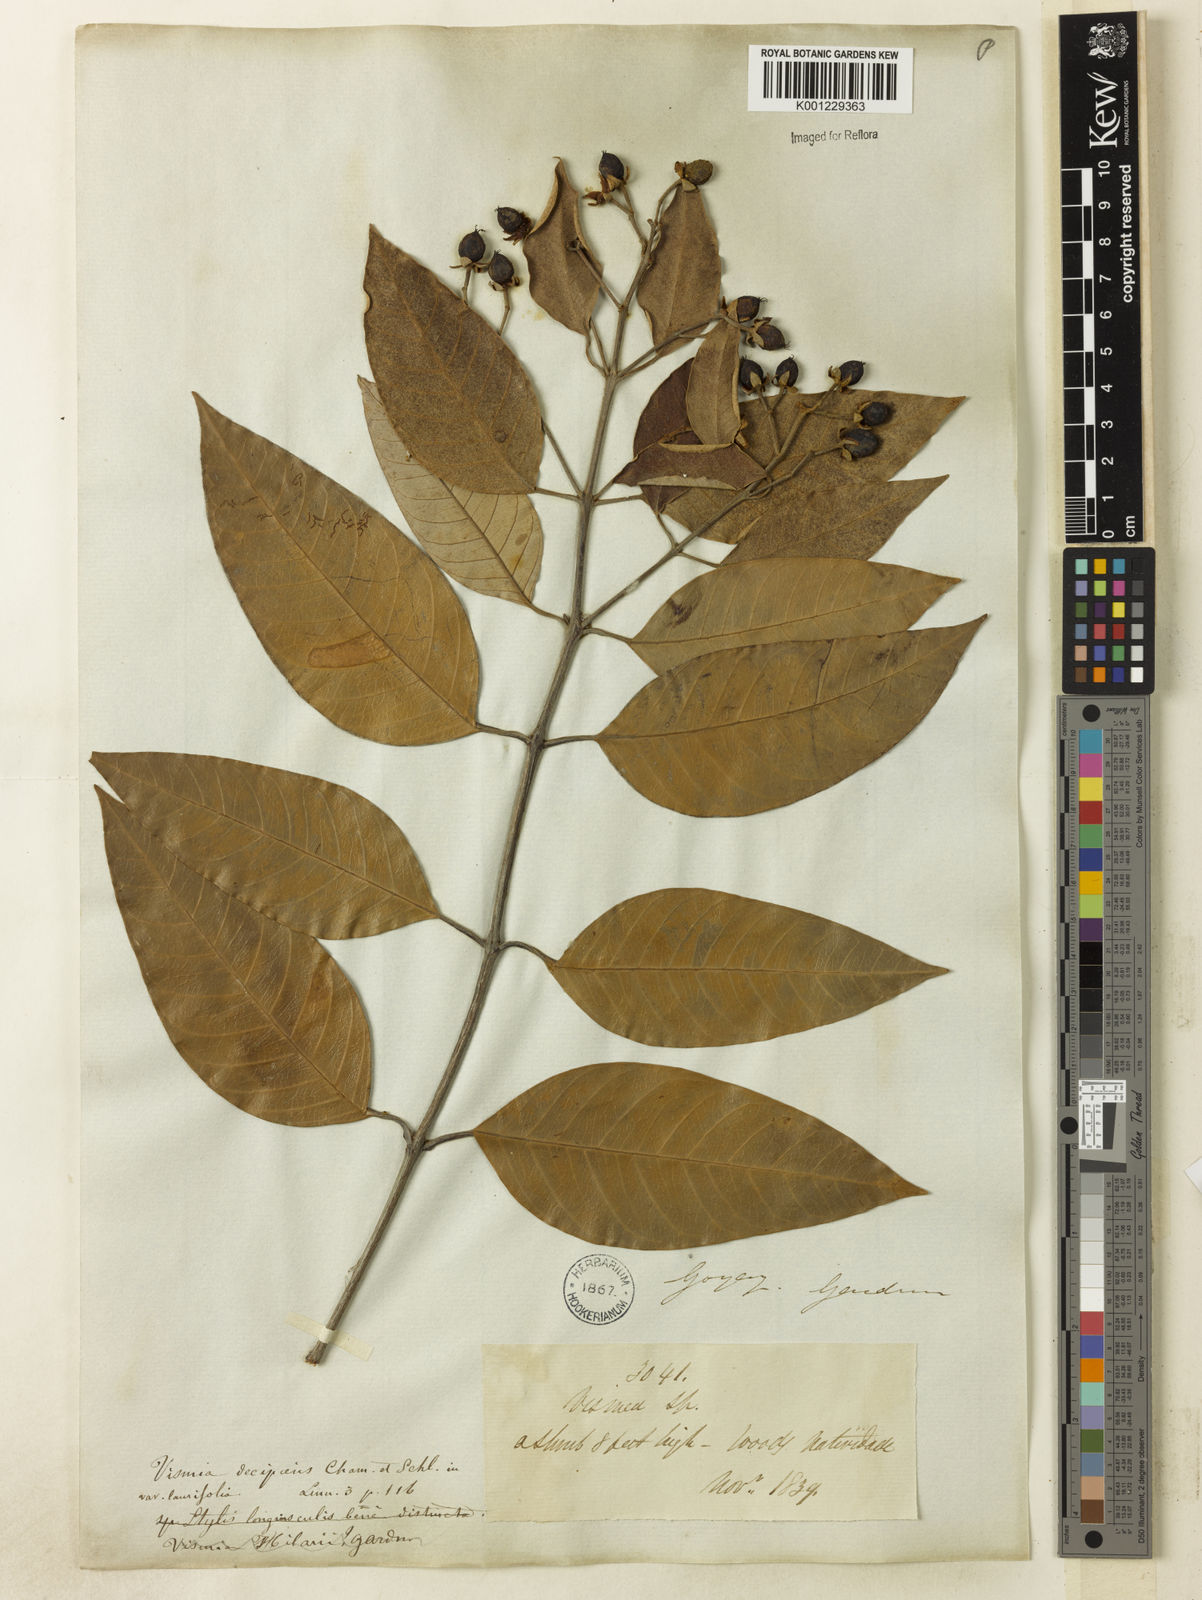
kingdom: Plantae
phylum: Tracheophyta
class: Magnoliopsida
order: Malpighiales
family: Hypericaceae
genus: Vismia
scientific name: Vismia gracilis
